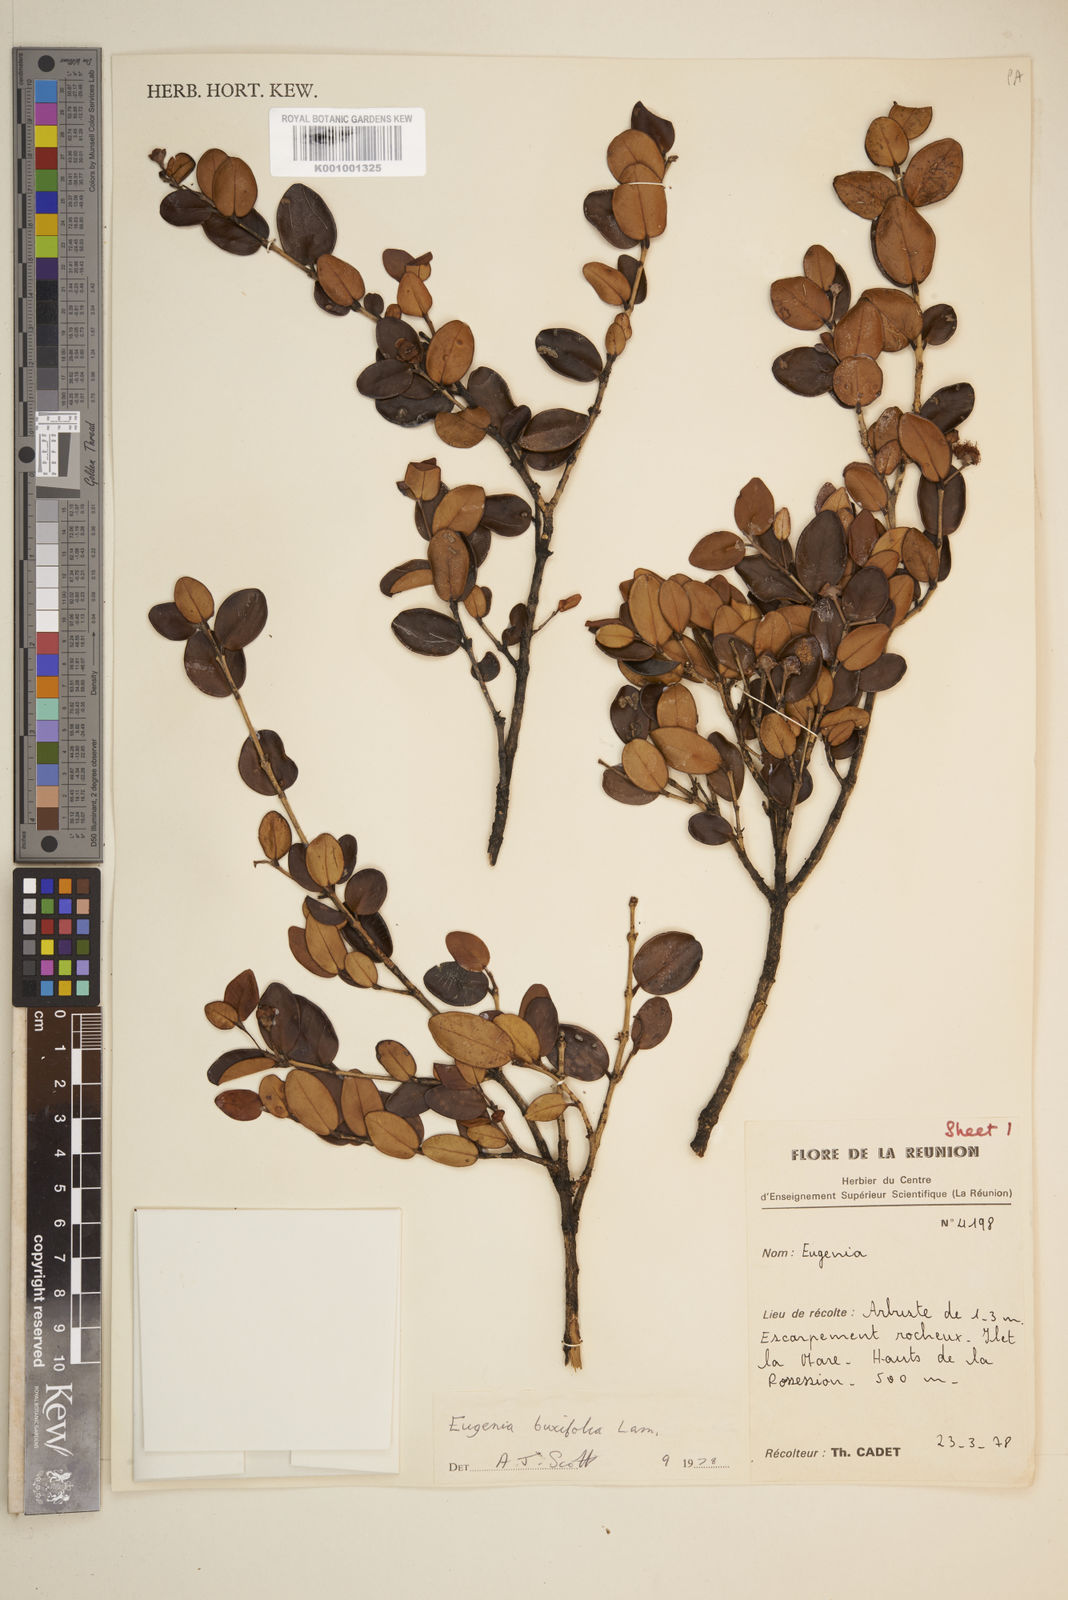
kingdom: Plantae
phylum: Tracheophyta
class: Magnoliopsida
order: Myrtales
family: Myrtaceae
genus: Eugenia
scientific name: Eugenia buxifolia
